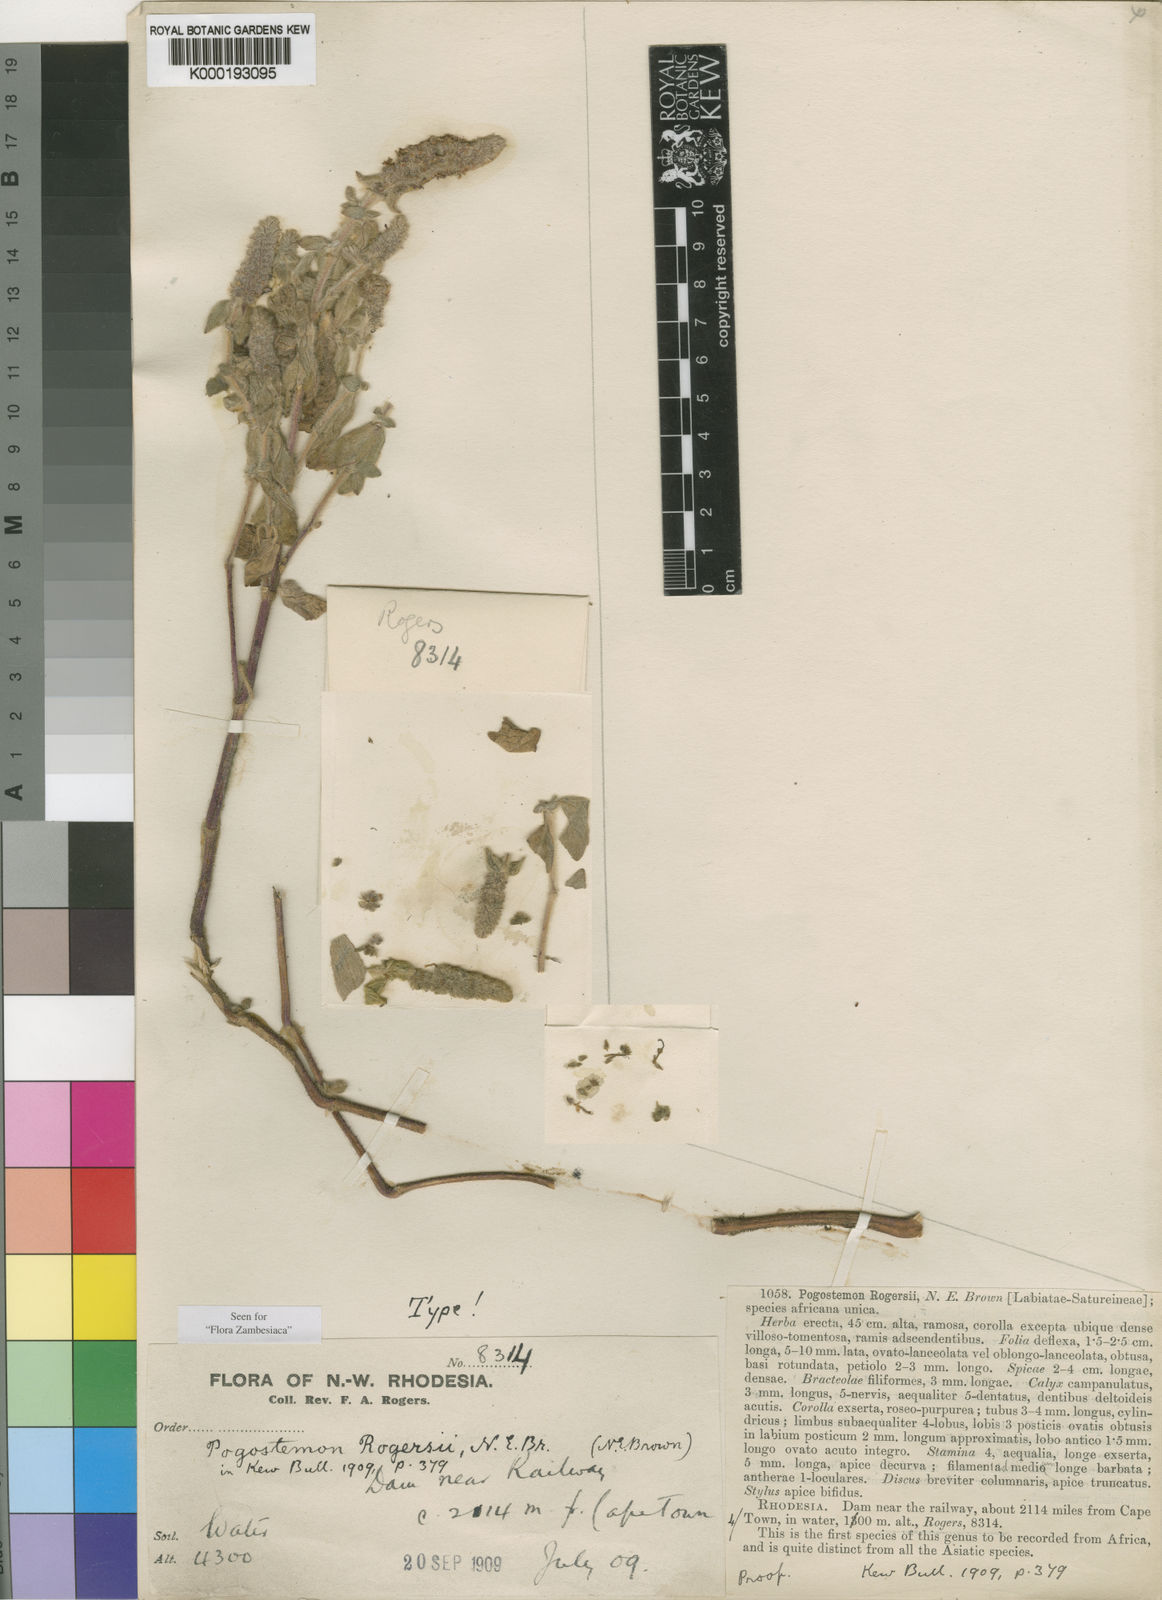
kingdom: Plantae
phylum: Tracheophyta
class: Magnoliopsida
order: Lamiales
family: Lamiaceae
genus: Pogostemon
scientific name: Pogostemon rogersii
